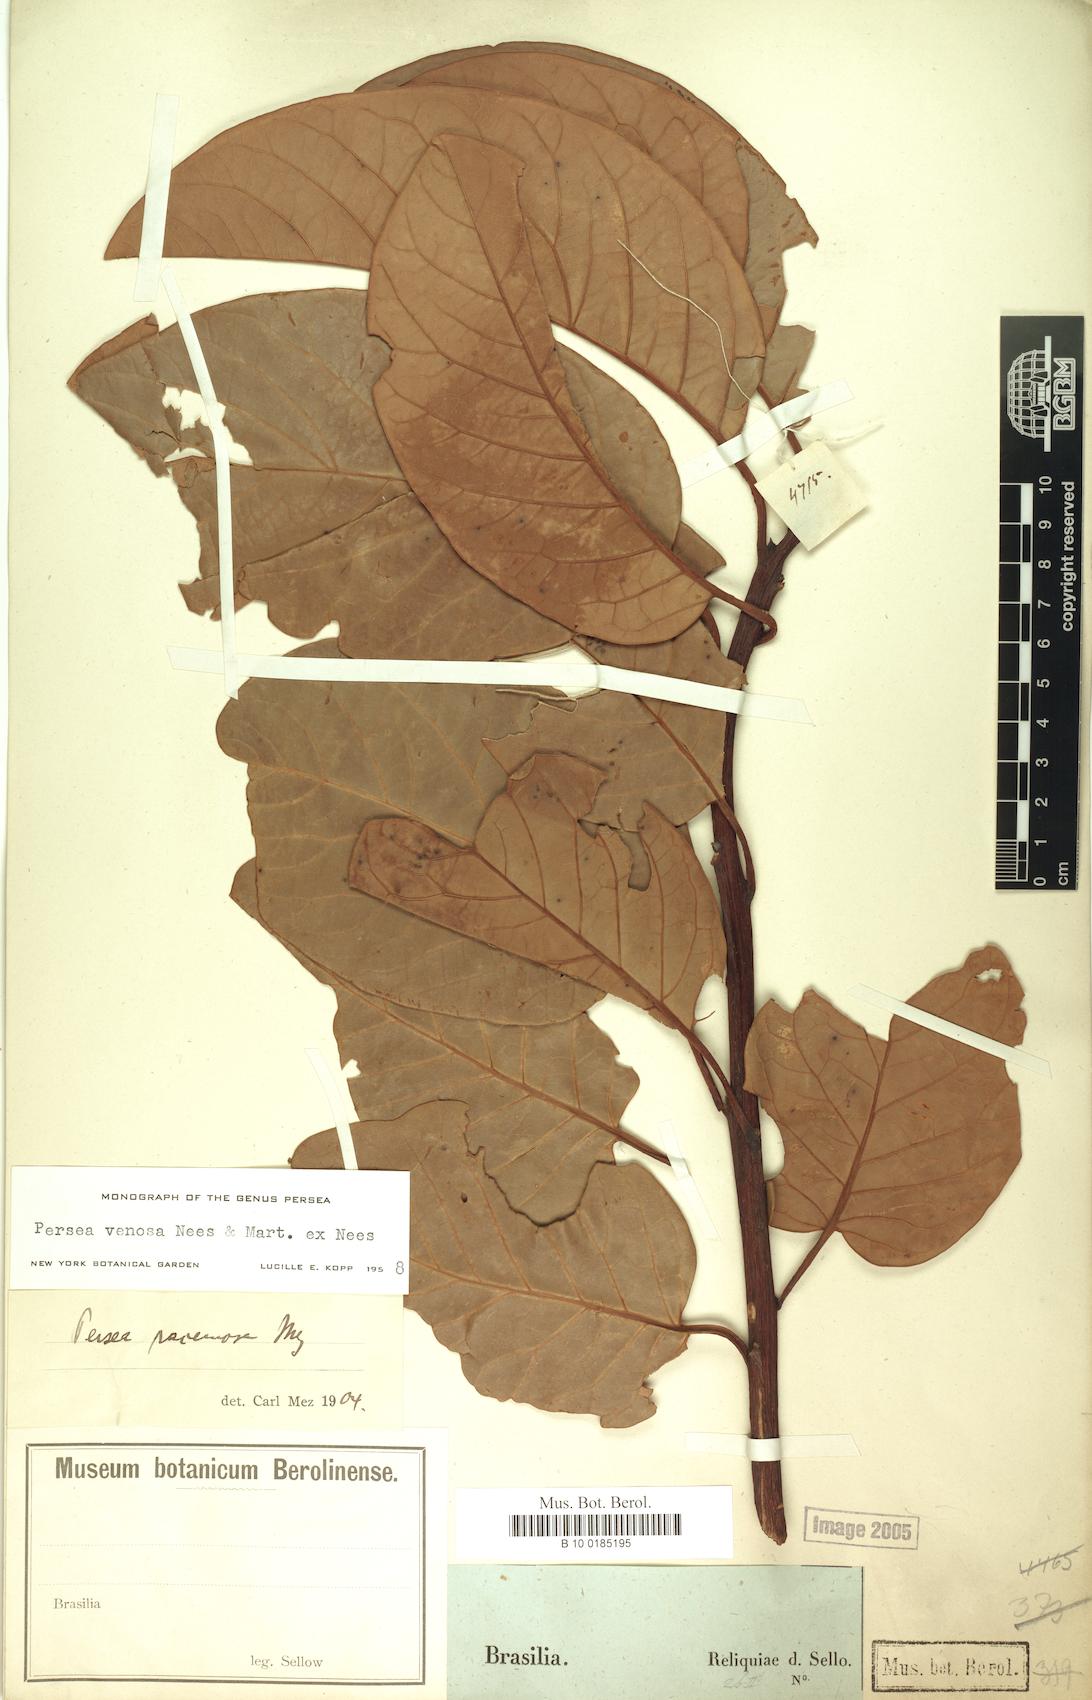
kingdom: Plantae
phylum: Tracheophyta
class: Magnoliopsida
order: Laurales
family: Lauraceae
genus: Persea
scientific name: Persea venosa
